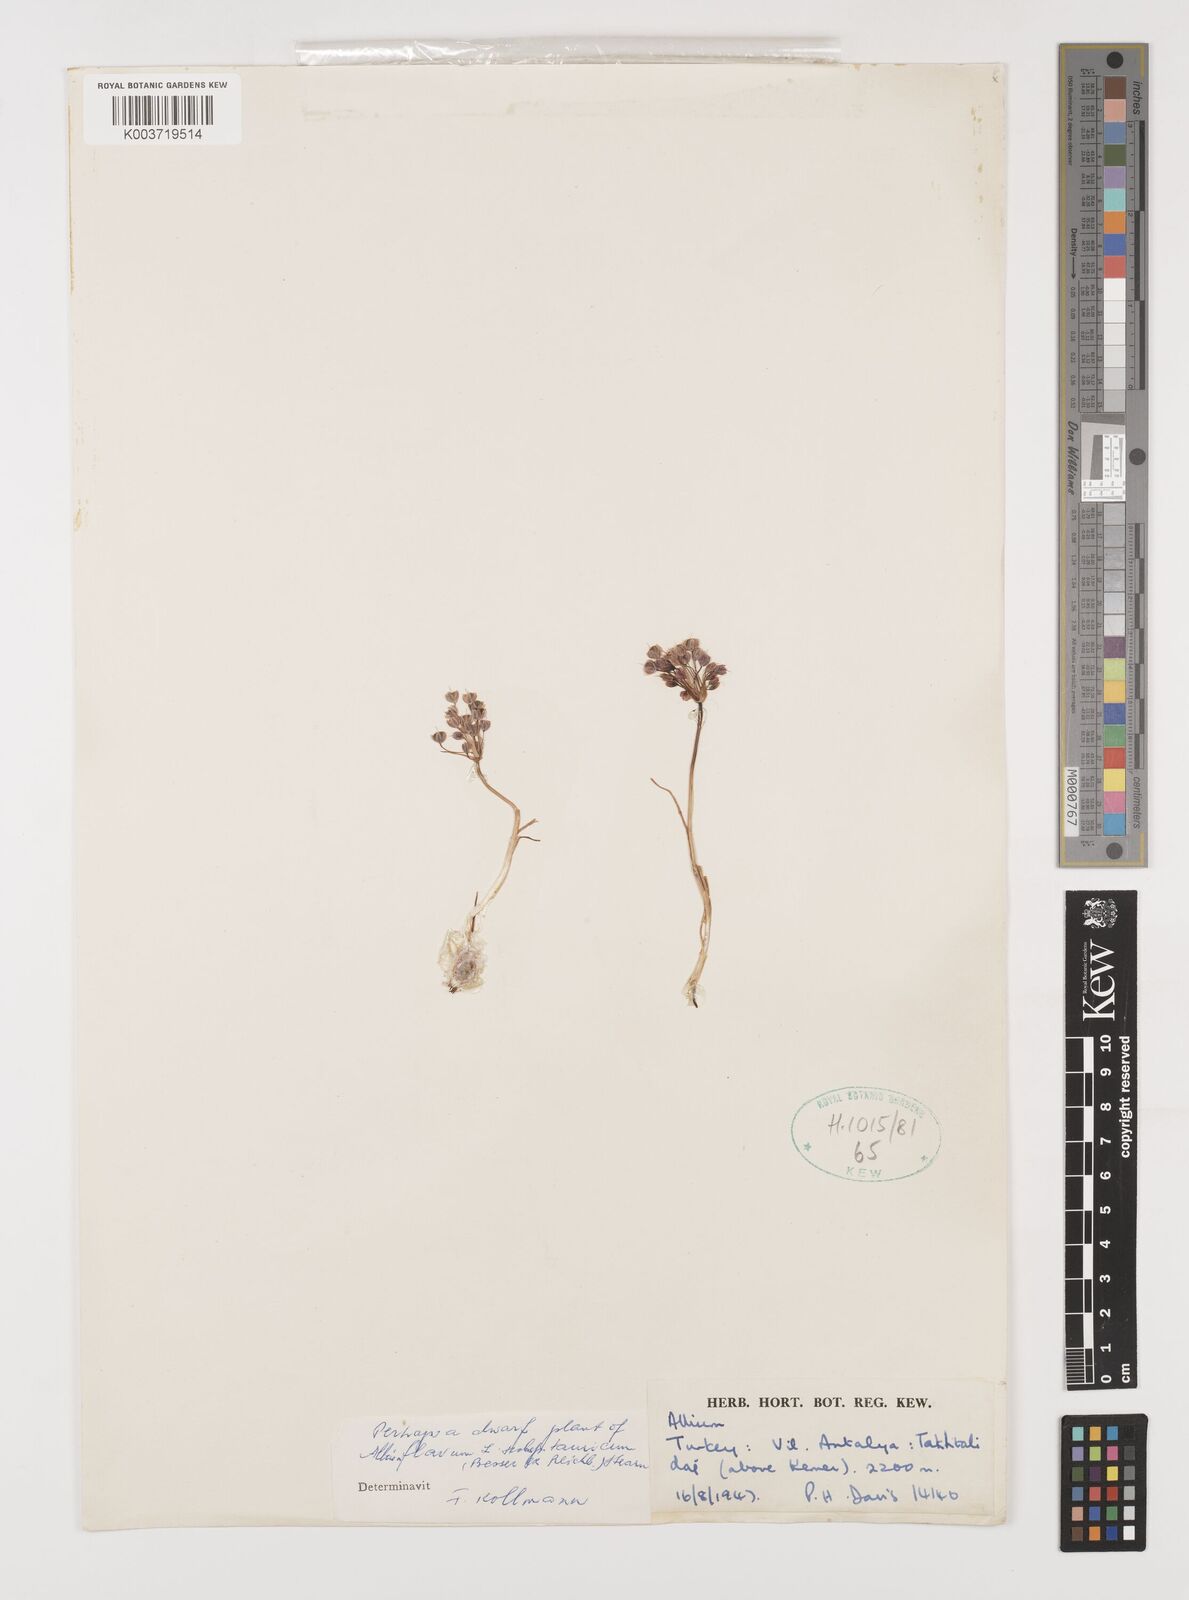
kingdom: Plantae
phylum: Tracheophyta
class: Liliopsida
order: Asparagales
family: Amaryllidaceae
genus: Allium
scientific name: Allium flavum
